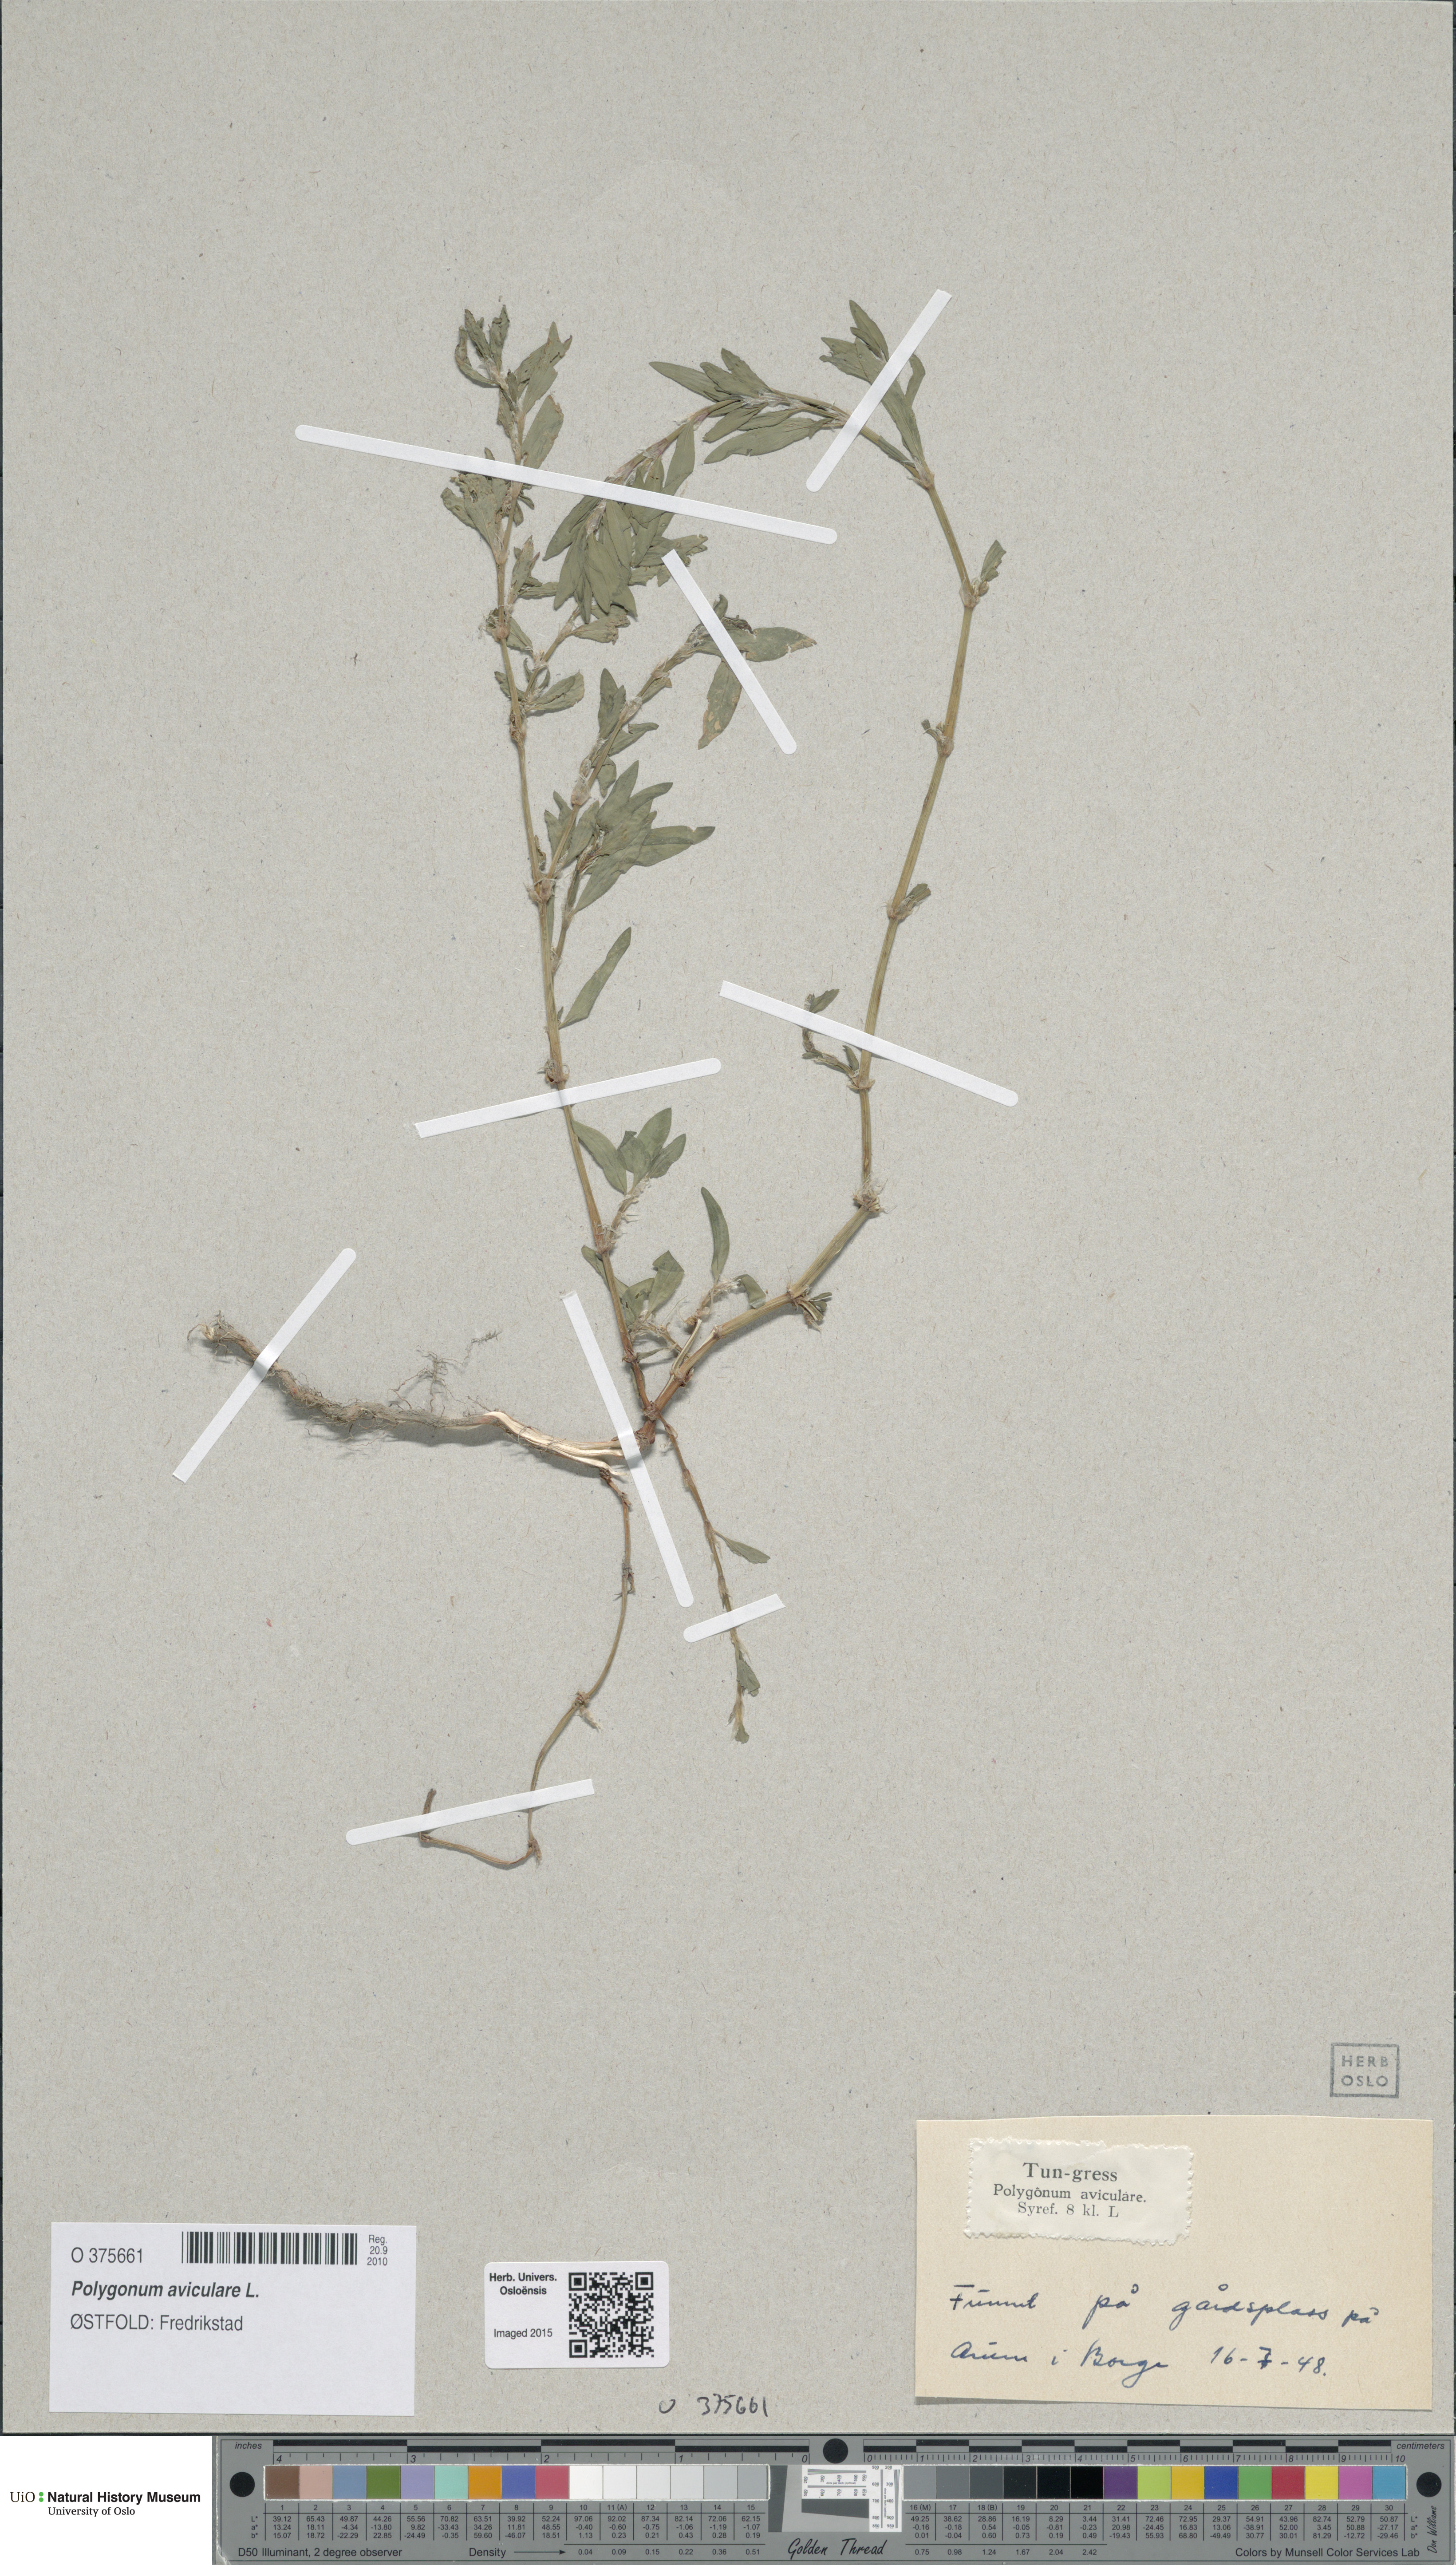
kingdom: Plantae
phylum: Tracheophyta
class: Magnoliopsida
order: Caryophyllales
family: Polygonaceae
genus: Polygonum
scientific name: Polygonum aviculare
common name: Prostrate knotweed
